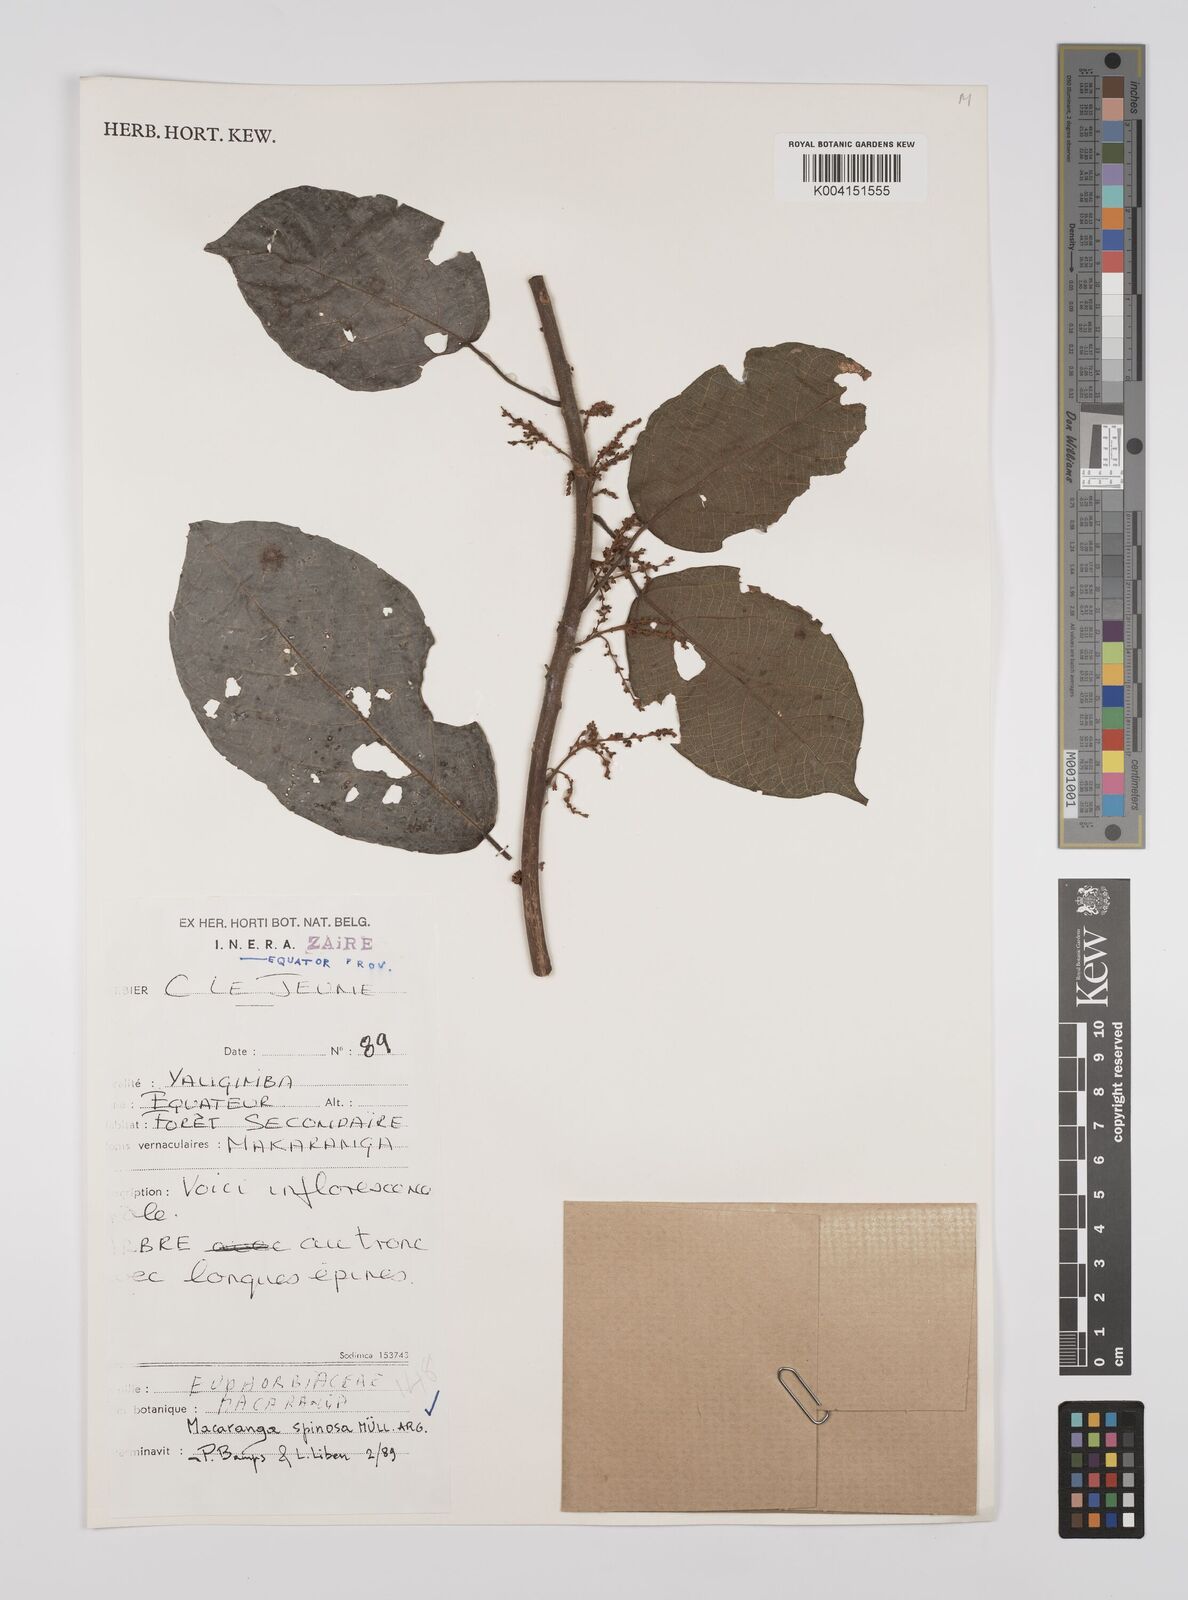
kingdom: Plantae
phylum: Tracheophyta
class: Magnoliopsida
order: Malpighiales
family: Euphorbiaceae
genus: Macaranga
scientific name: Macaranga spinosa
